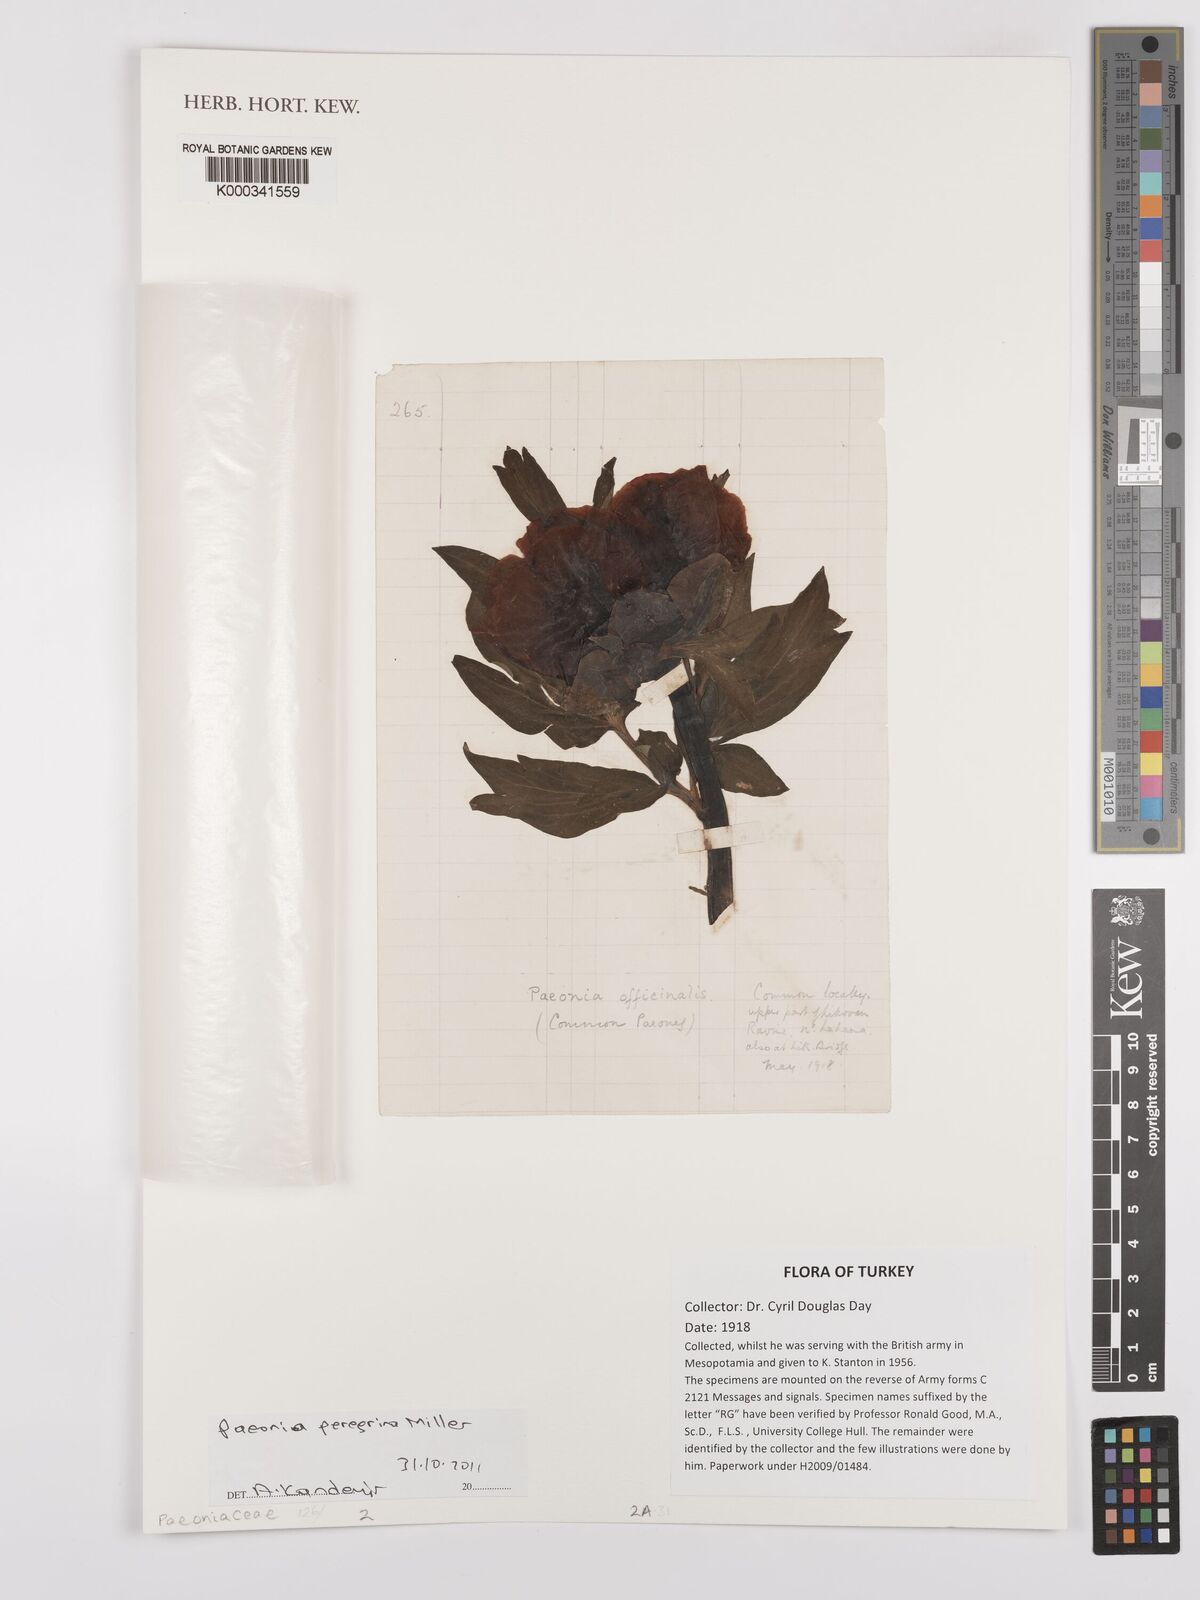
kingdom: Plantae
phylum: Tracheophyta
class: Magnoliopsida
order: Saxifragales
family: Paeoniaceae
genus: Paeonia
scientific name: Paeonia peregrina
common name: Scarlet peony
